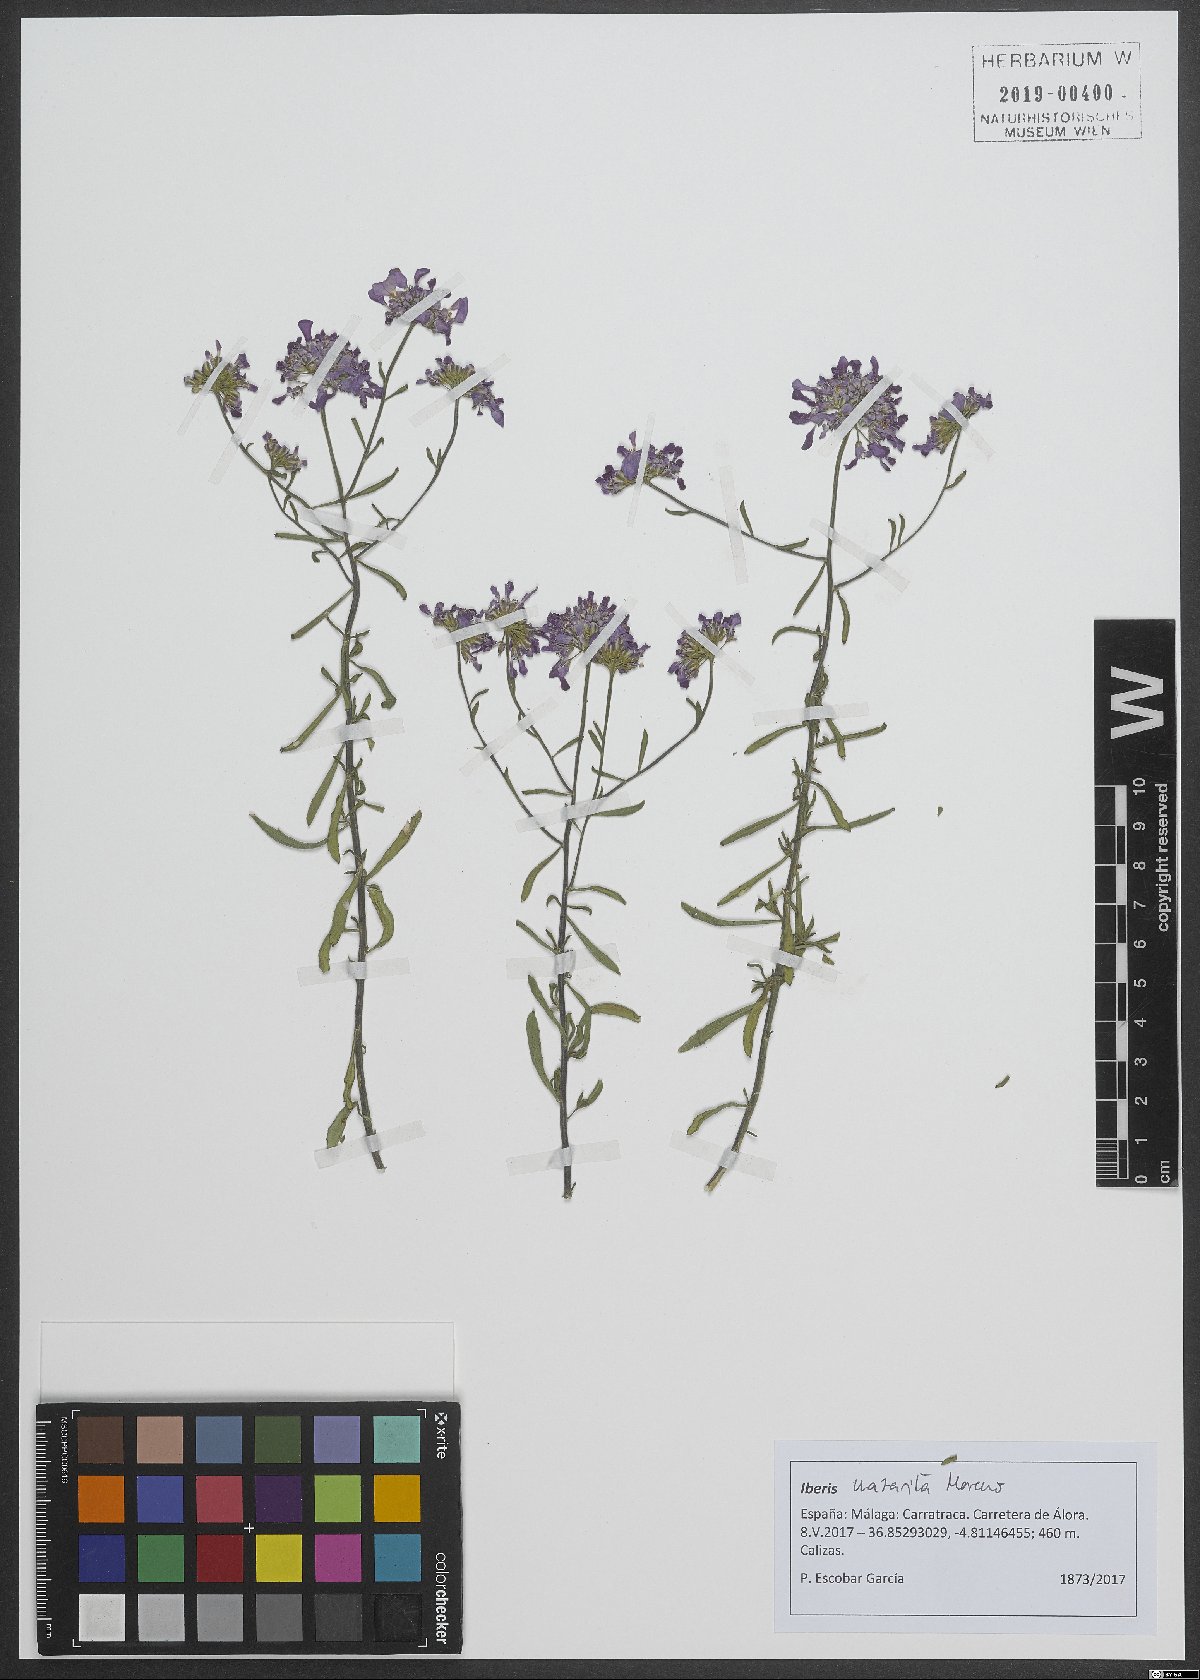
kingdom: Plantae
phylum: Tracheophyta
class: Magnoliopsida
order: Brassicales
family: Brassicaceae
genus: Iberis
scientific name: Iberis nazarita
